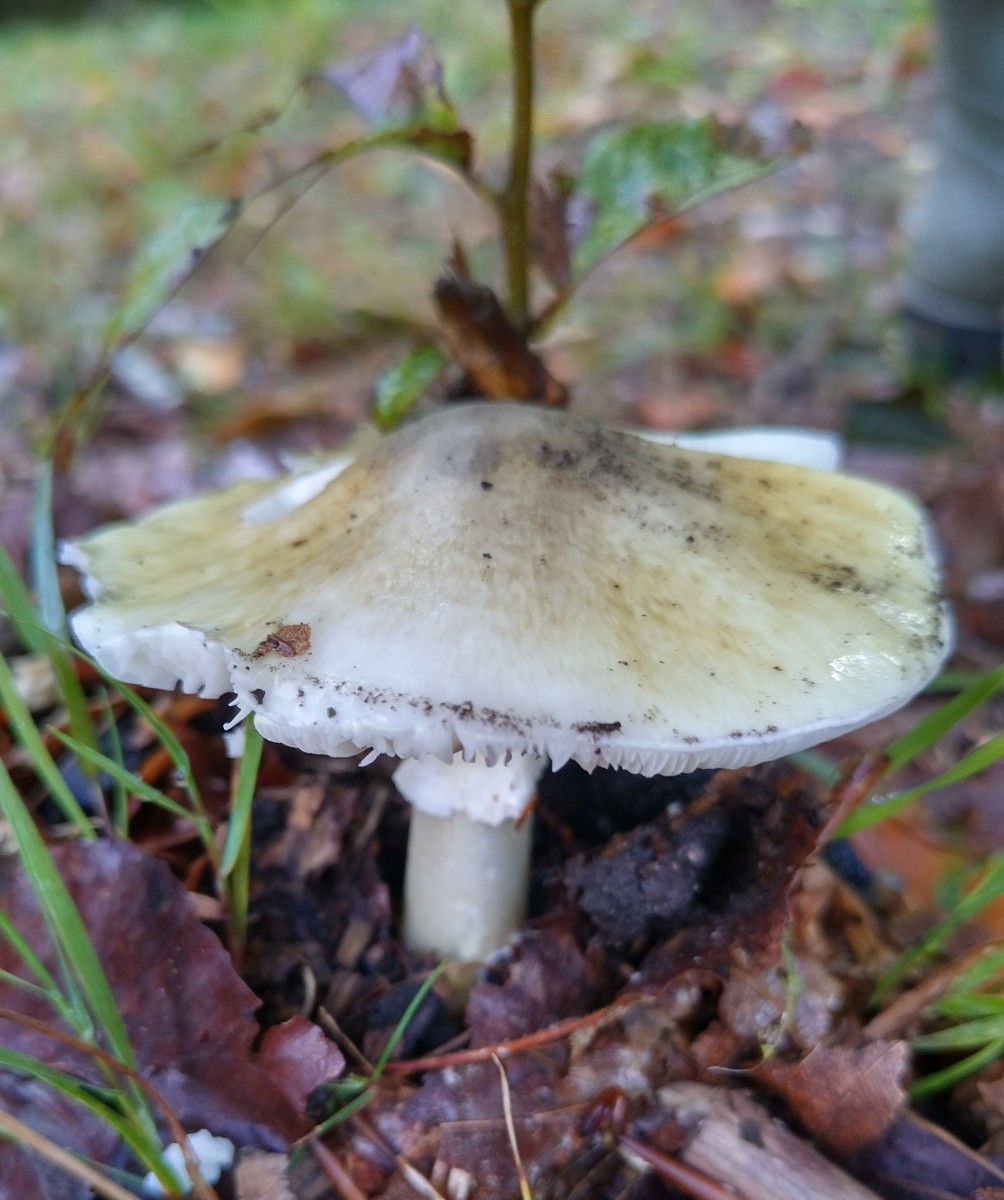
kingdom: Fungi
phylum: Basidiomycota
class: Agaricomycetes
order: Agaricales
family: Amanitaceae
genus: Amanita
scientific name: Amanita phalloides
